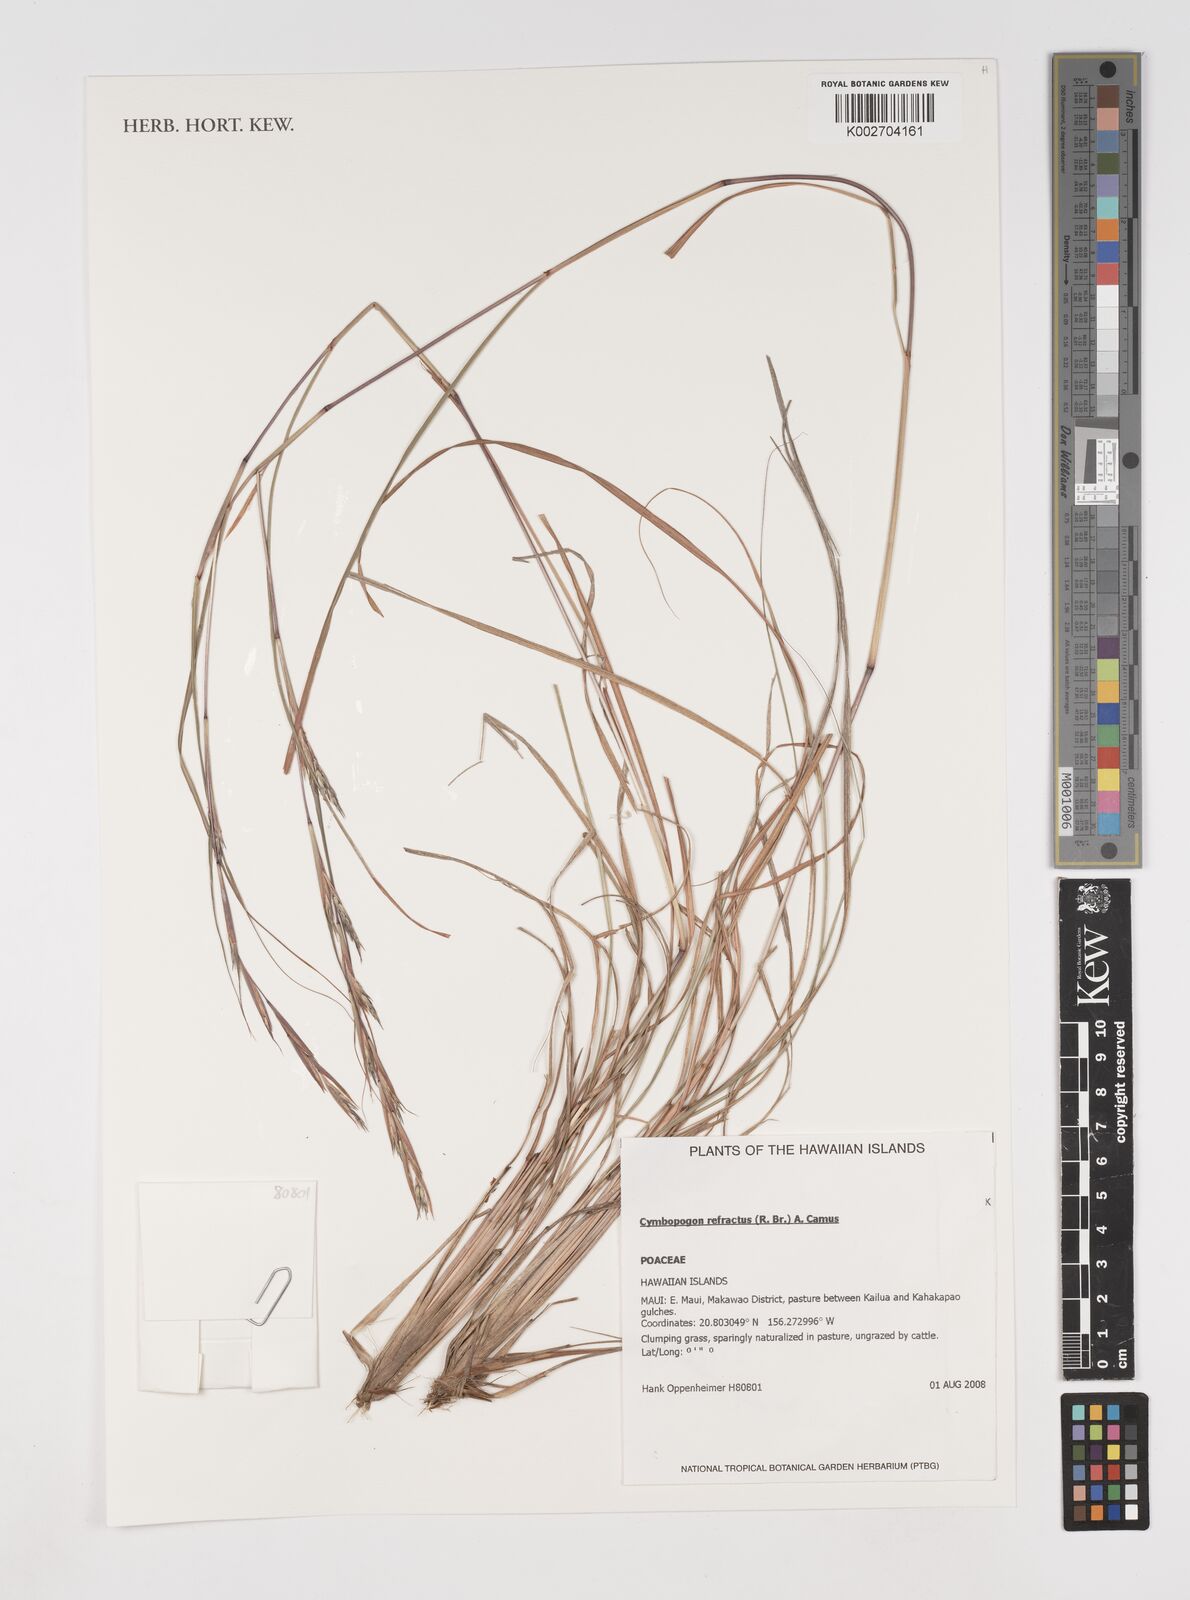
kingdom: Plantae
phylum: Tracheophyta
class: Liliopsida
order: Poales
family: Poaceae
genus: Cymbopogon
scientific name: Cymbopogon refractus
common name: Barbwire grass
